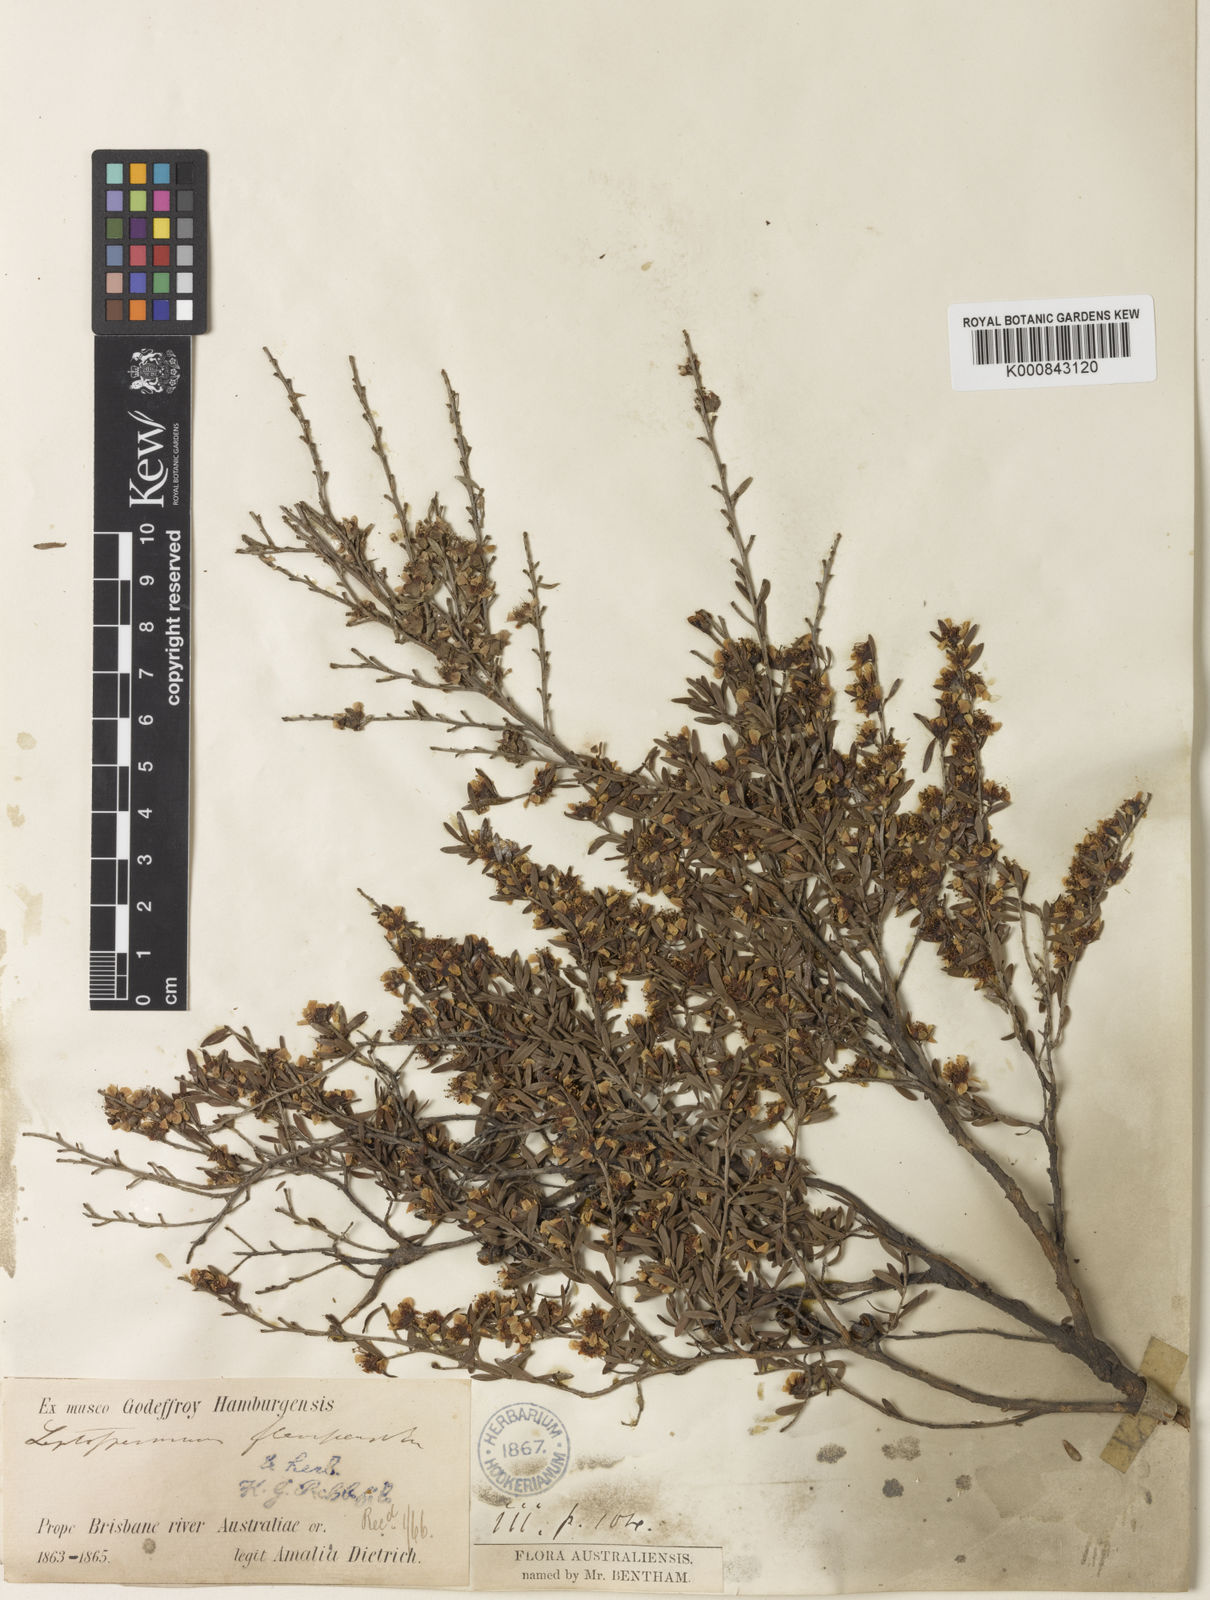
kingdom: Plantae
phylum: Tracheophyta
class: Magnoliopsida
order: Myrtales
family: Myrtaceae
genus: Leptospermum
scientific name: Leptospermum polygalifolium
